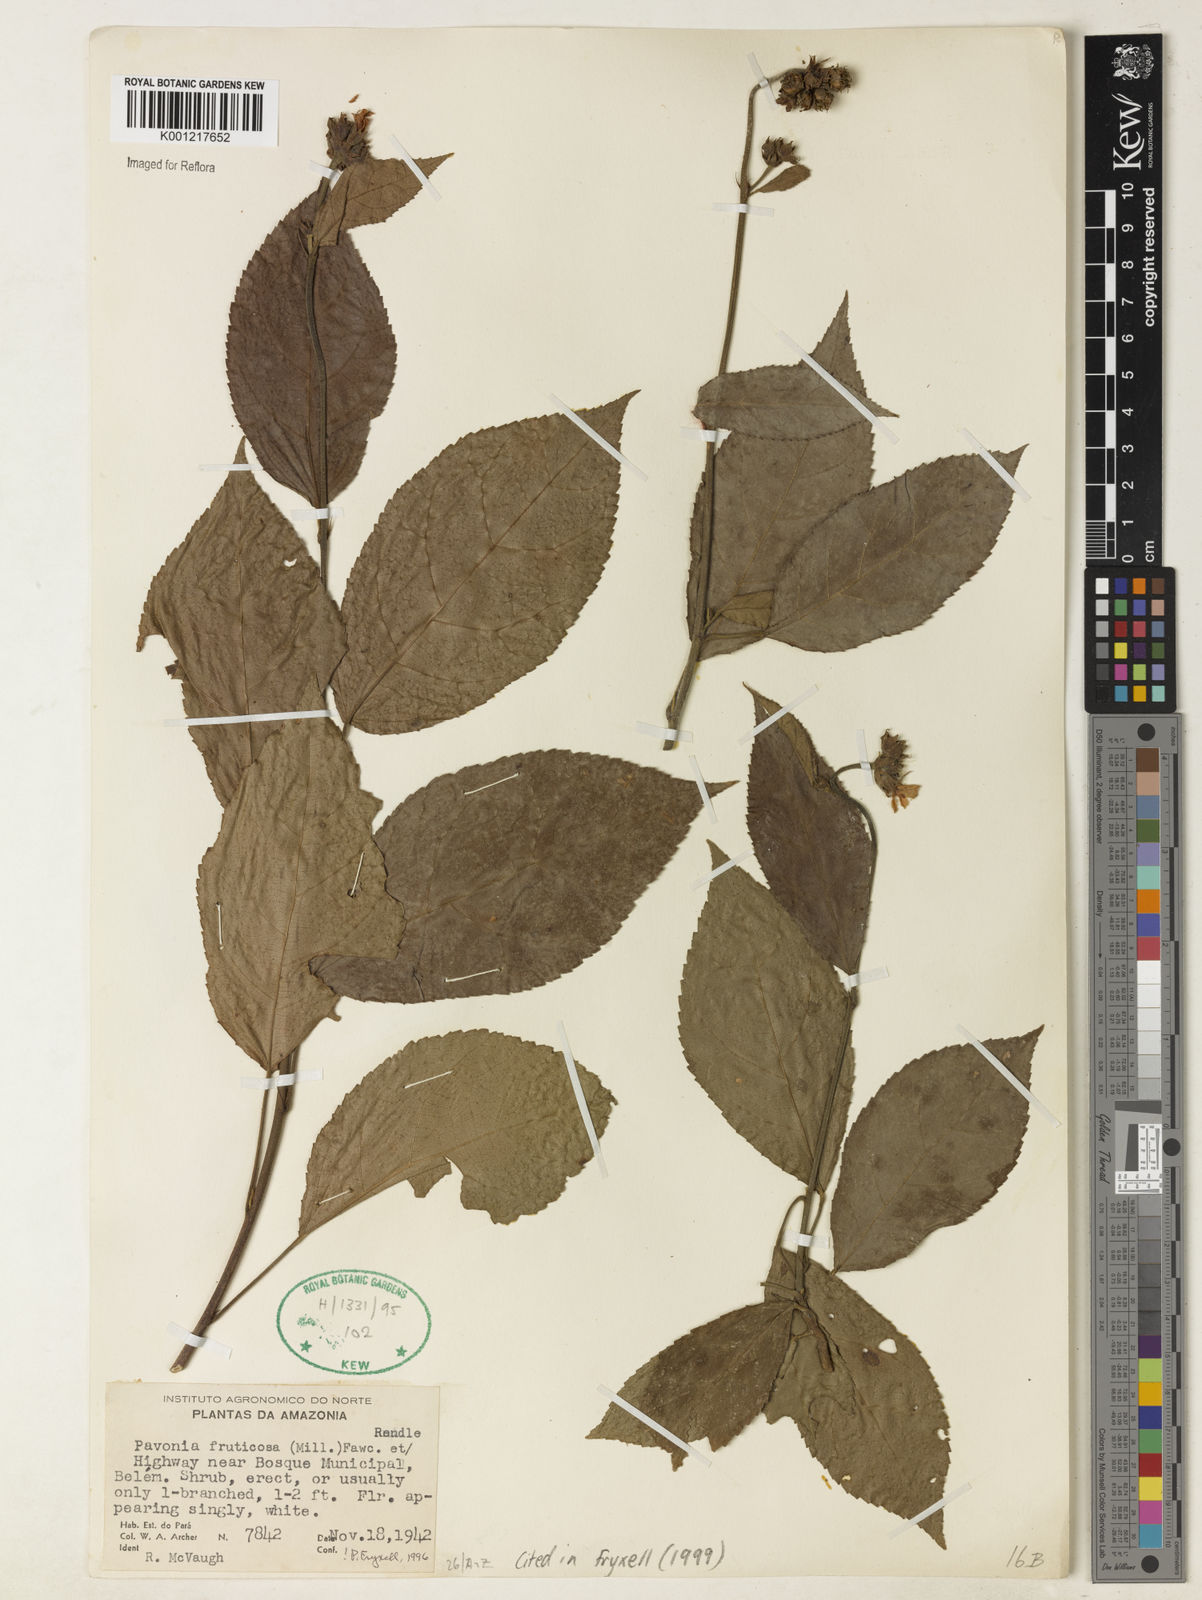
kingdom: Plantae
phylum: Tracheophyta
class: Magnoliopsida
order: Malvales
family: Malvaceae
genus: Pavonia
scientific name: Pavonia fruticosa
